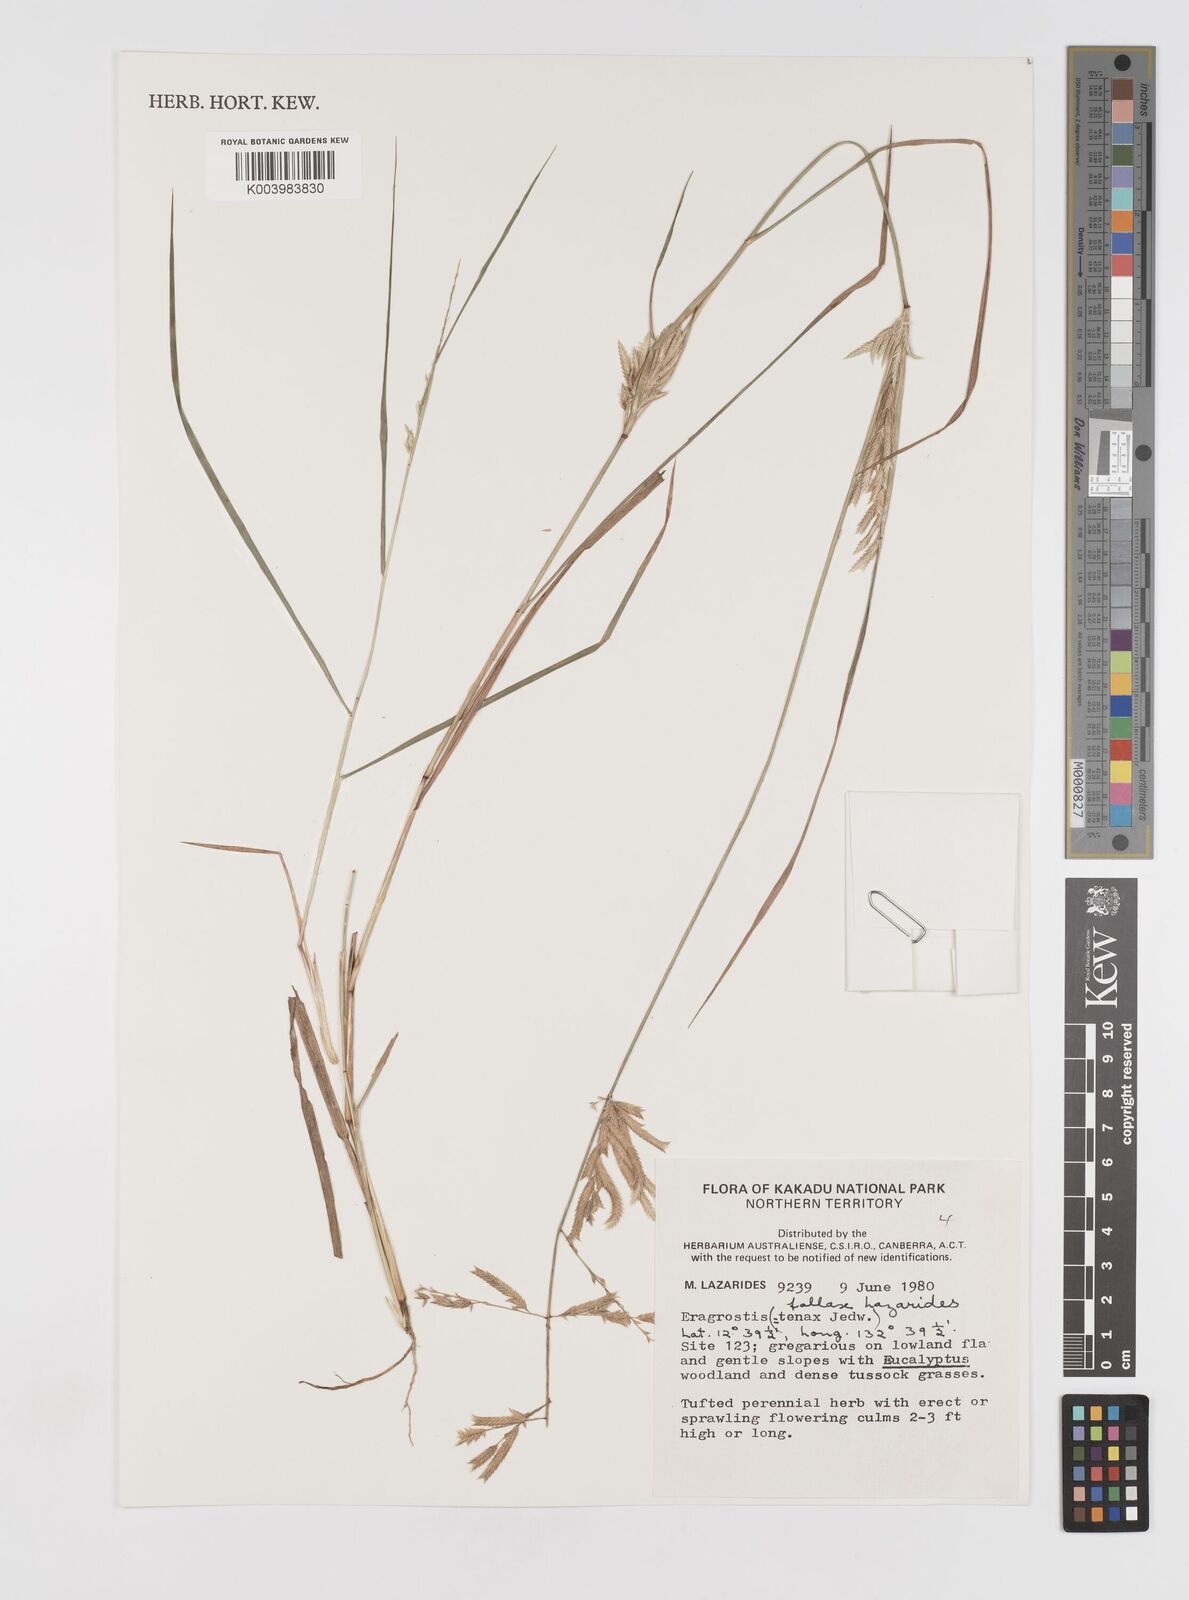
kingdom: Plantae
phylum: Tracheophyta
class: Liliopsida
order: Poales
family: Poaceae
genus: Eragrostis
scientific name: Eragrostis fallax
